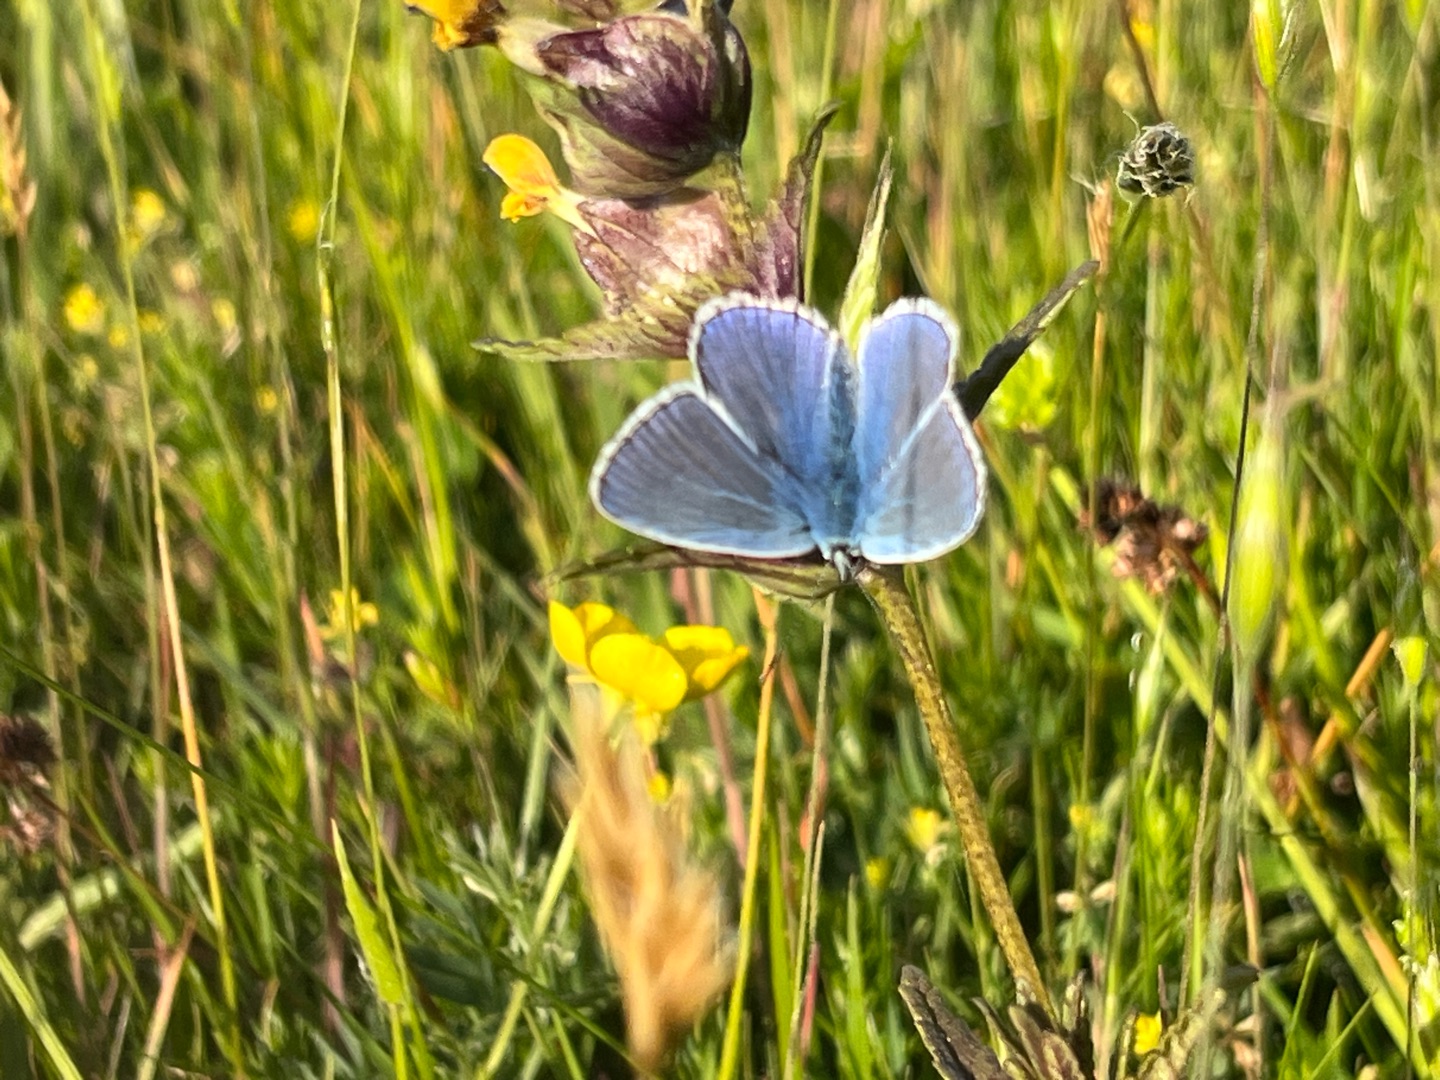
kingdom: Animalia
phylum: Arthropoda
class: Insecta
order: Lepidoptera
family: Lycaenidae
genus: Polyommatus
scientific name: Polyommatus icarus
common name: Almindelig blåfugl
